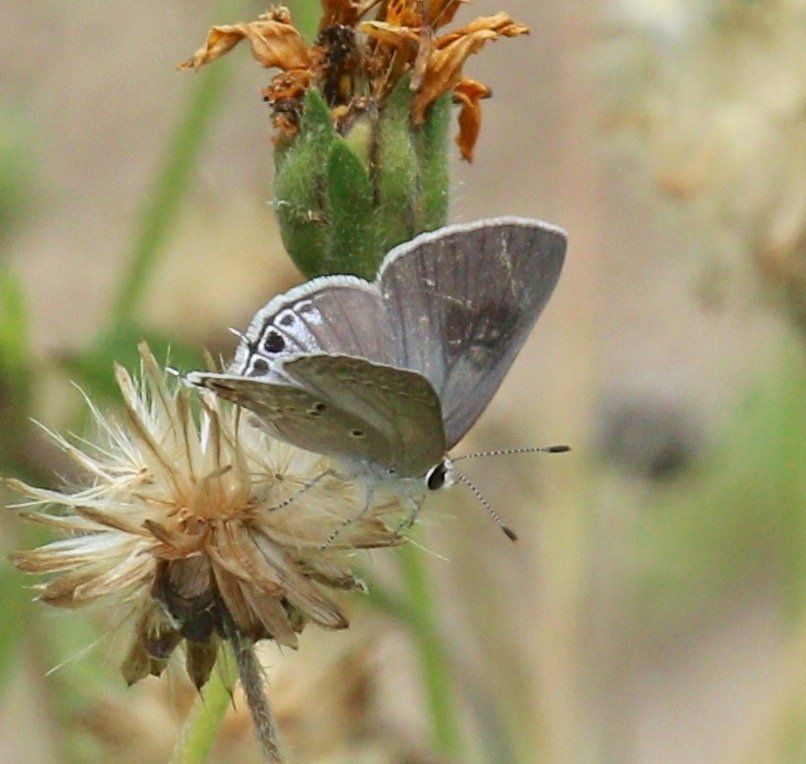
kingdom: Animalia
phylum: Arthropoda
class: Insecta
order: Lepidoptera
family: Lycaenidae
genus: Callicista
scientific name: Callicista columella
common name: Mallow Scrub-Hairstreak
